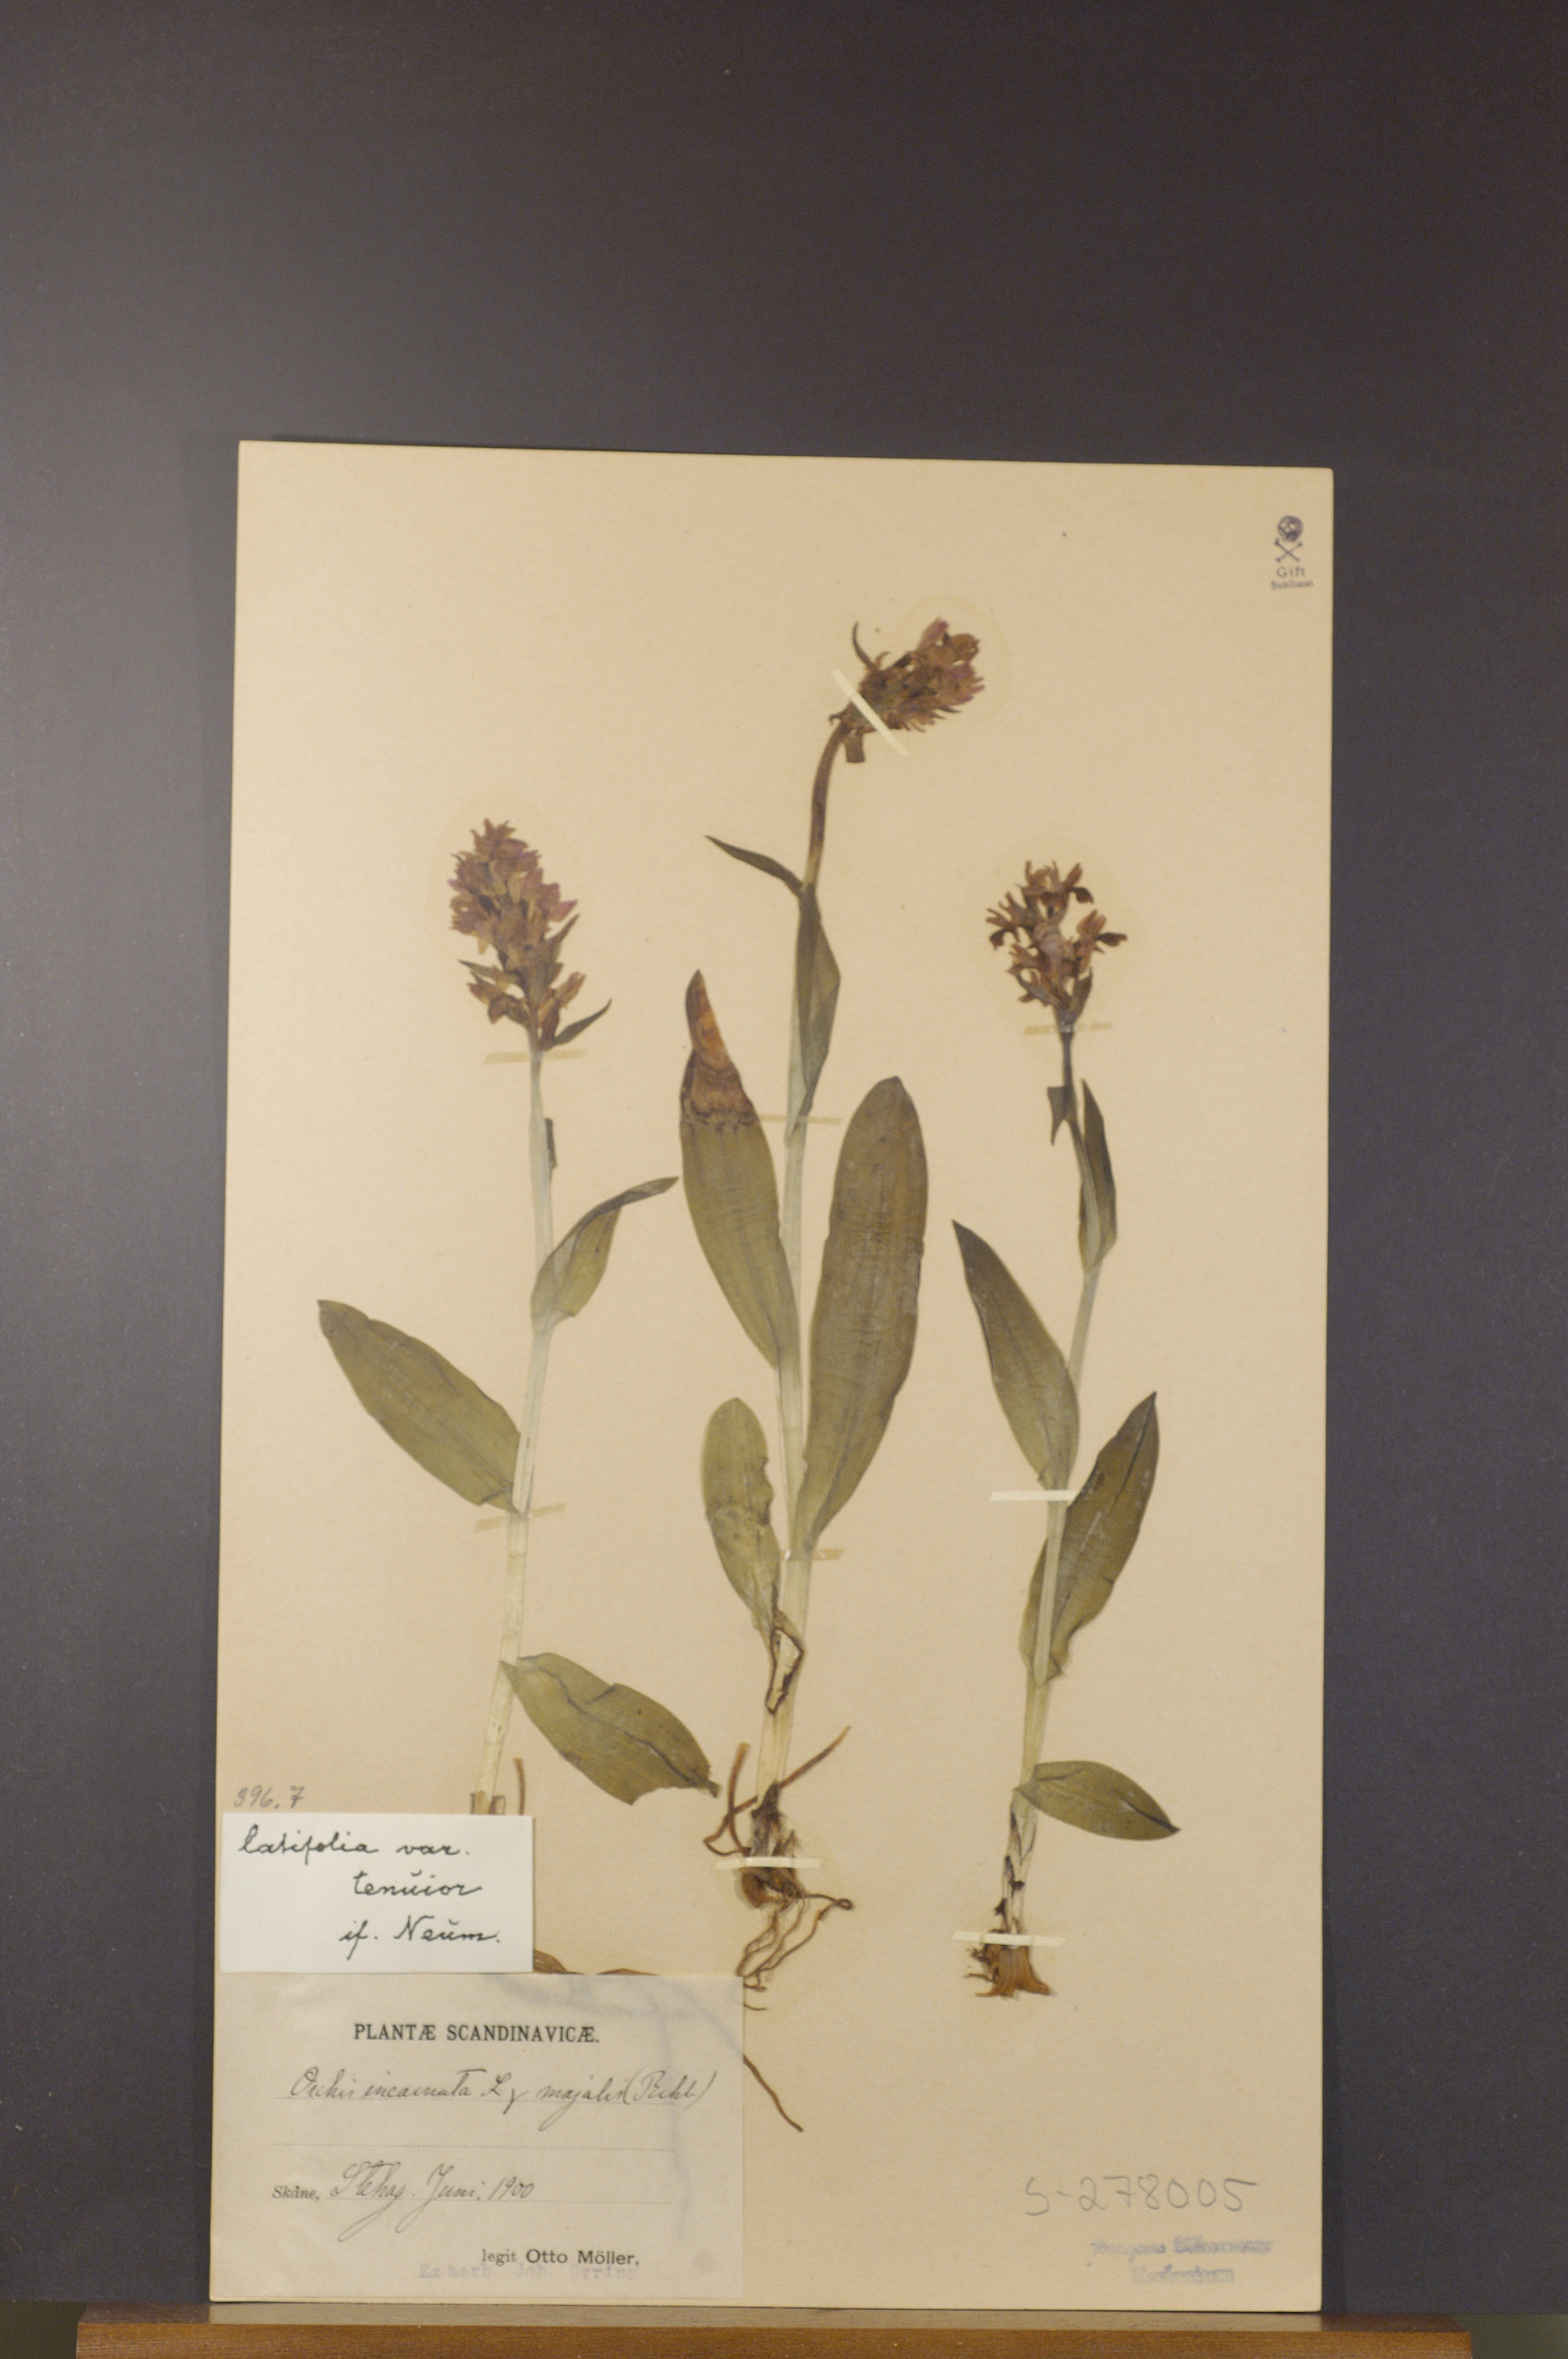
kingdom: Plantae
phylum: Tracheophyta
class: Liliopsida
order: Asparagales
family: Orchidaceae
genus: Dactylorhiza
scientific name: Dactylorhiza incarnata
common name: Early marsh-orchid
